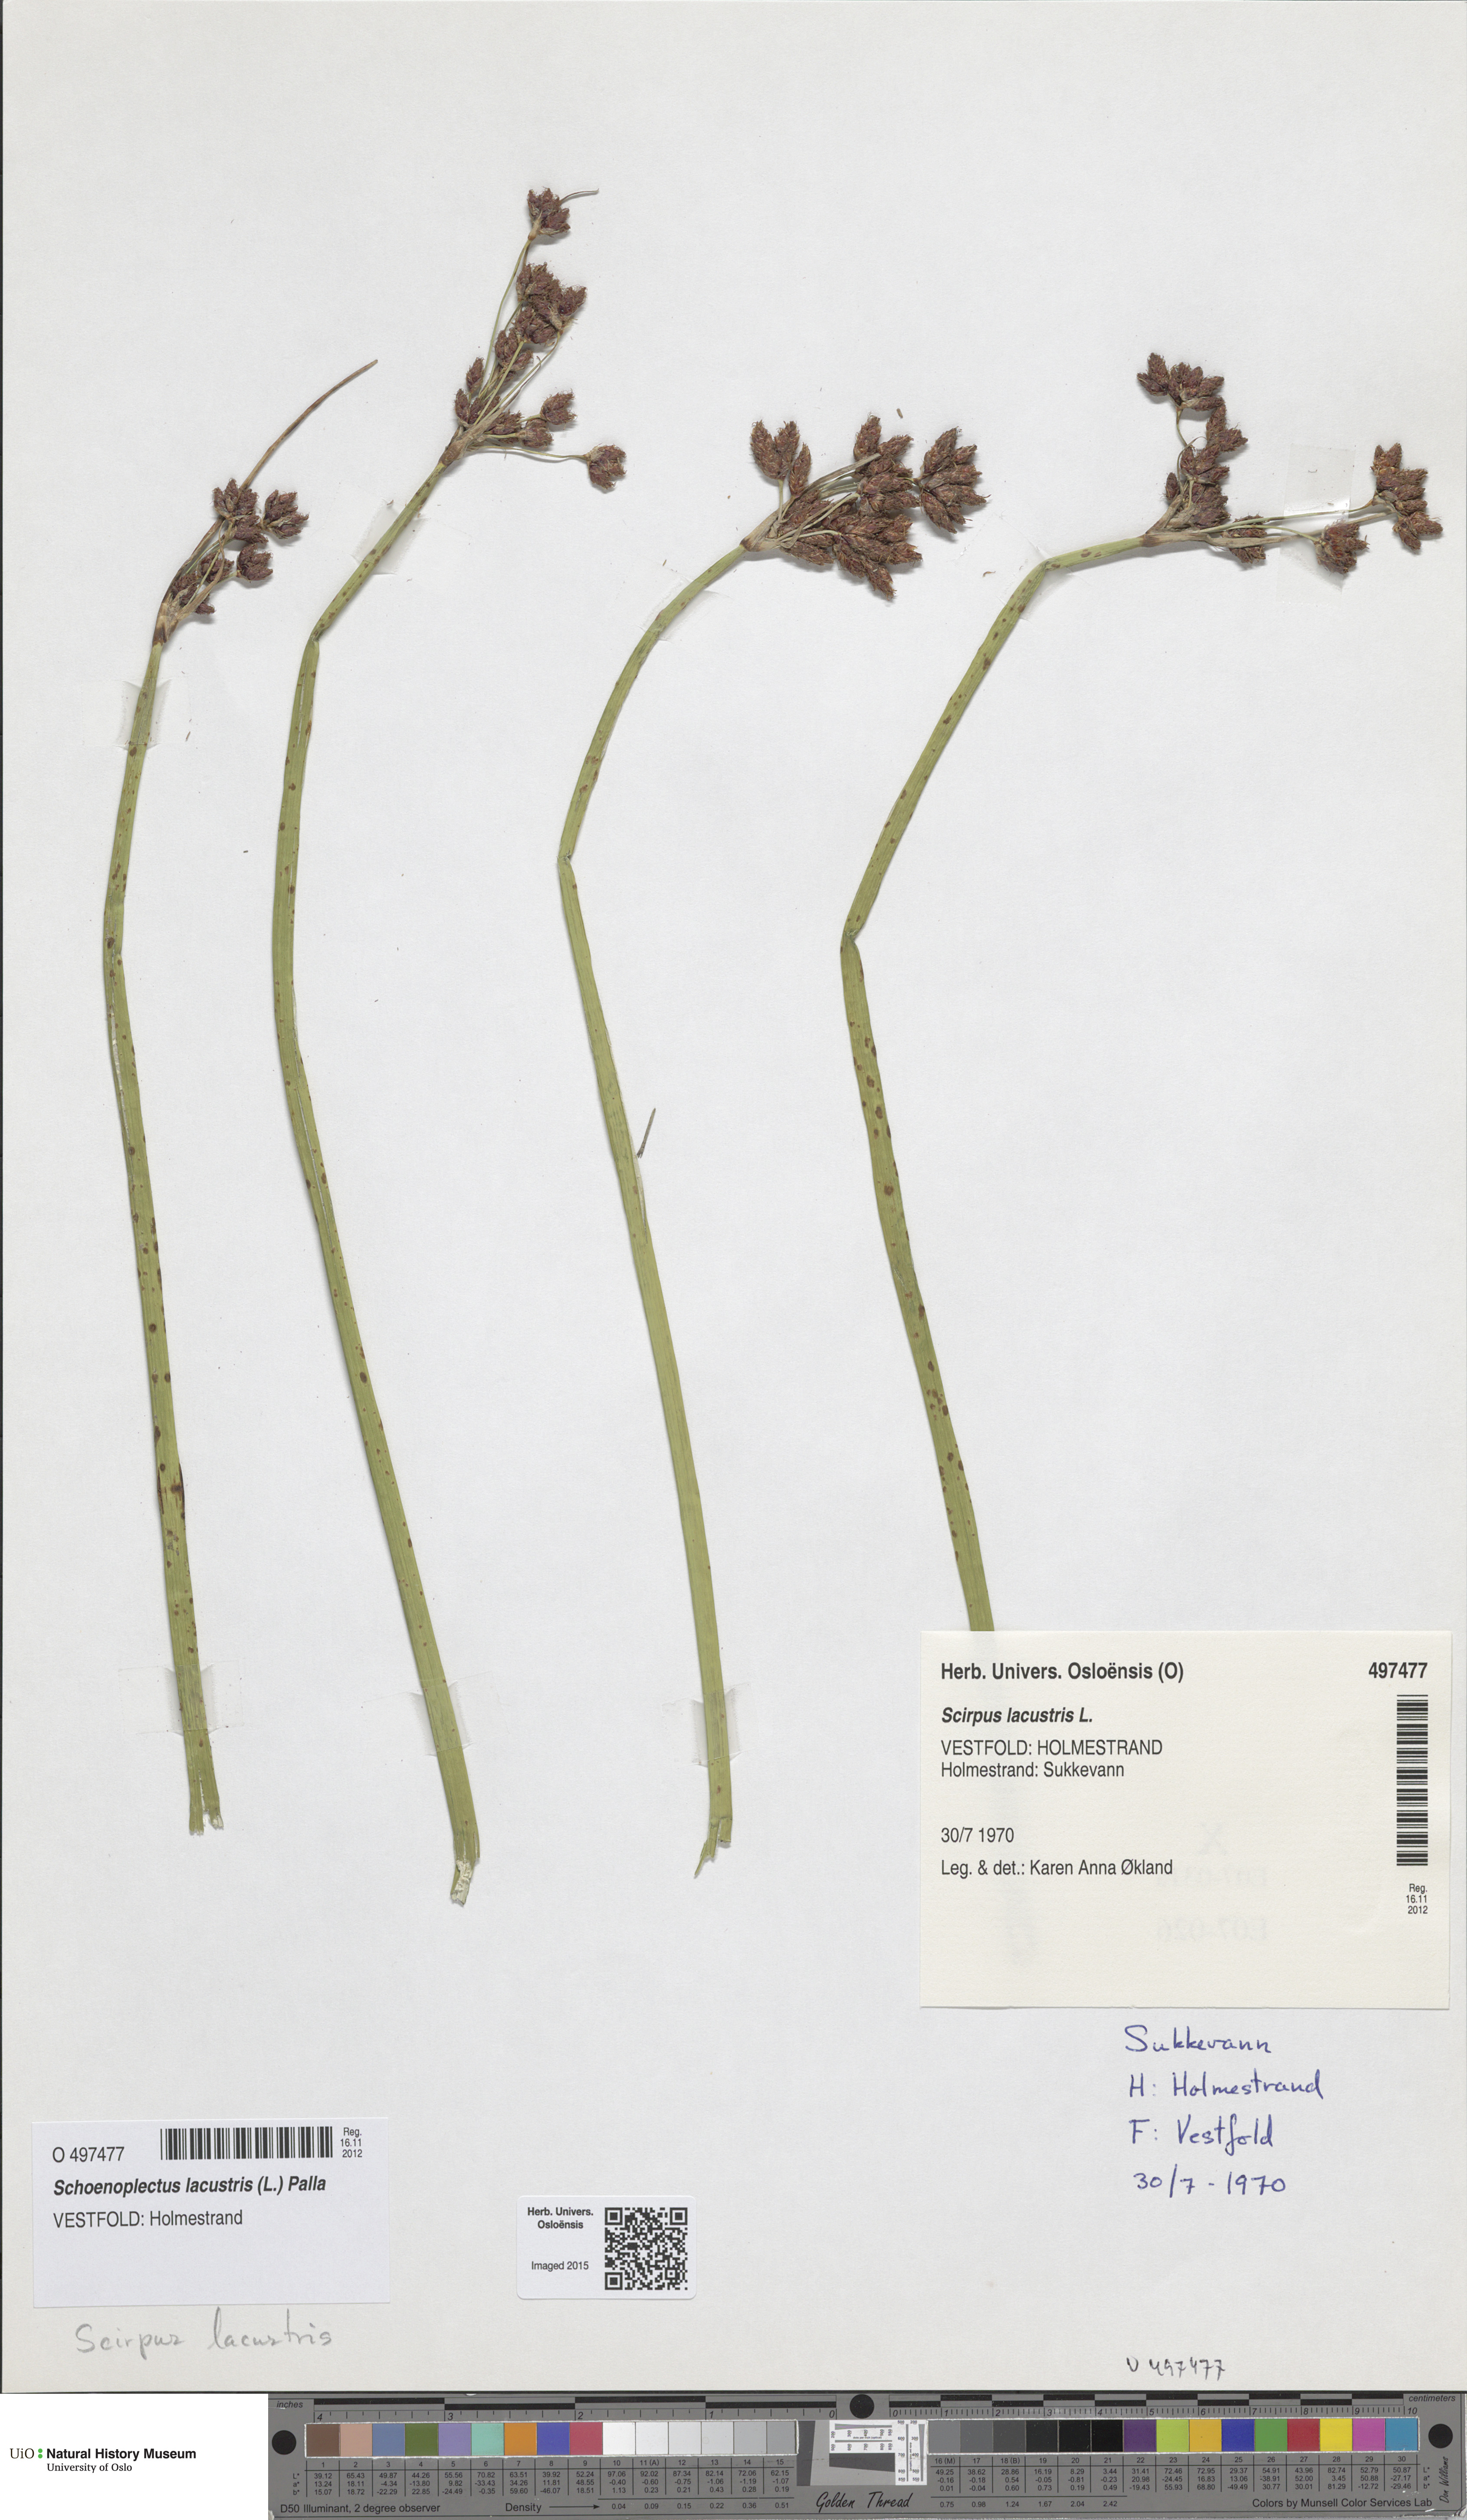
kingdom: Plantae
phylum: Tracheophyta
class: Liliopsida
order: Poales
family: Cyperaceae
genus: Schoenoplectus
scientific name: Schoenoplectus lacustris
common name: Common club-rush
